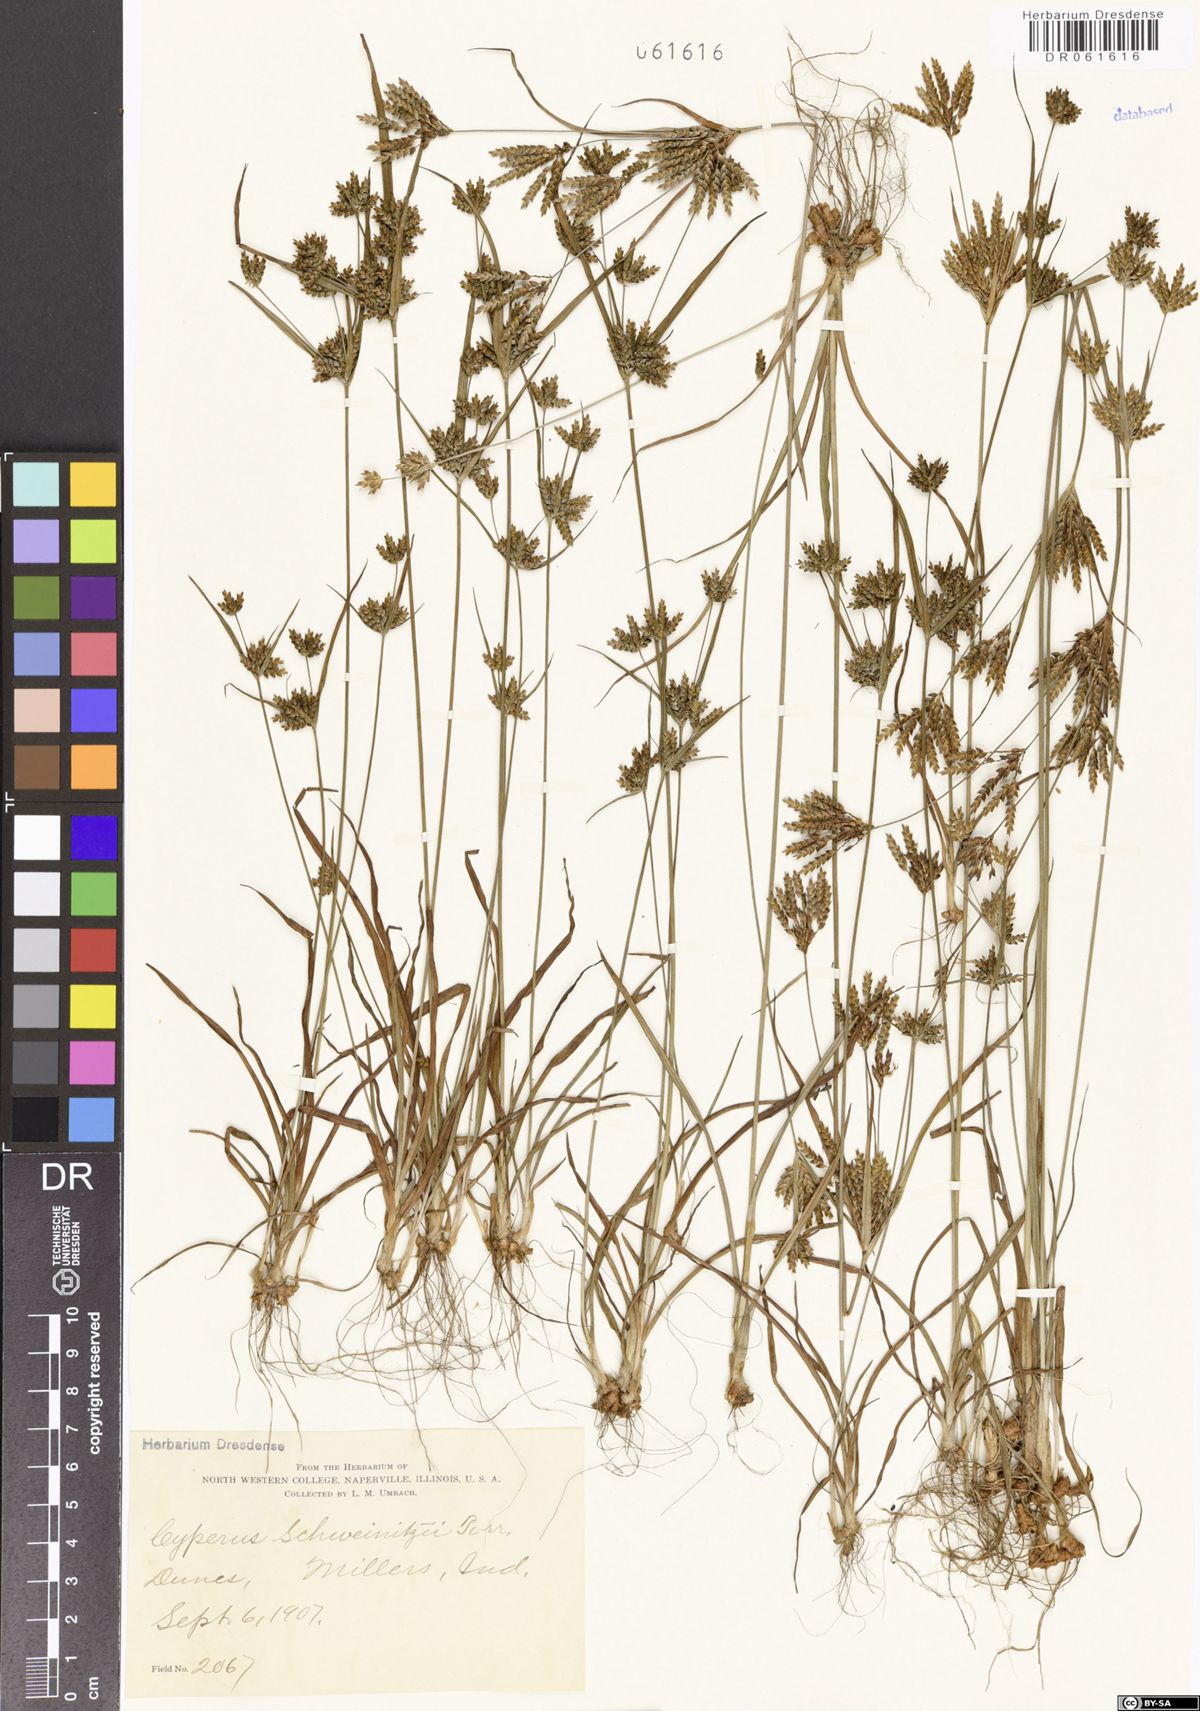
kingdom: Plantae
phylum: Tracheophyta
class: Liliopsida
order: Poales
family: Cyperaceae
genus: Cyperus
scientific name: Cyperus schweinitzii
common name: Schweinitz's cyperus
